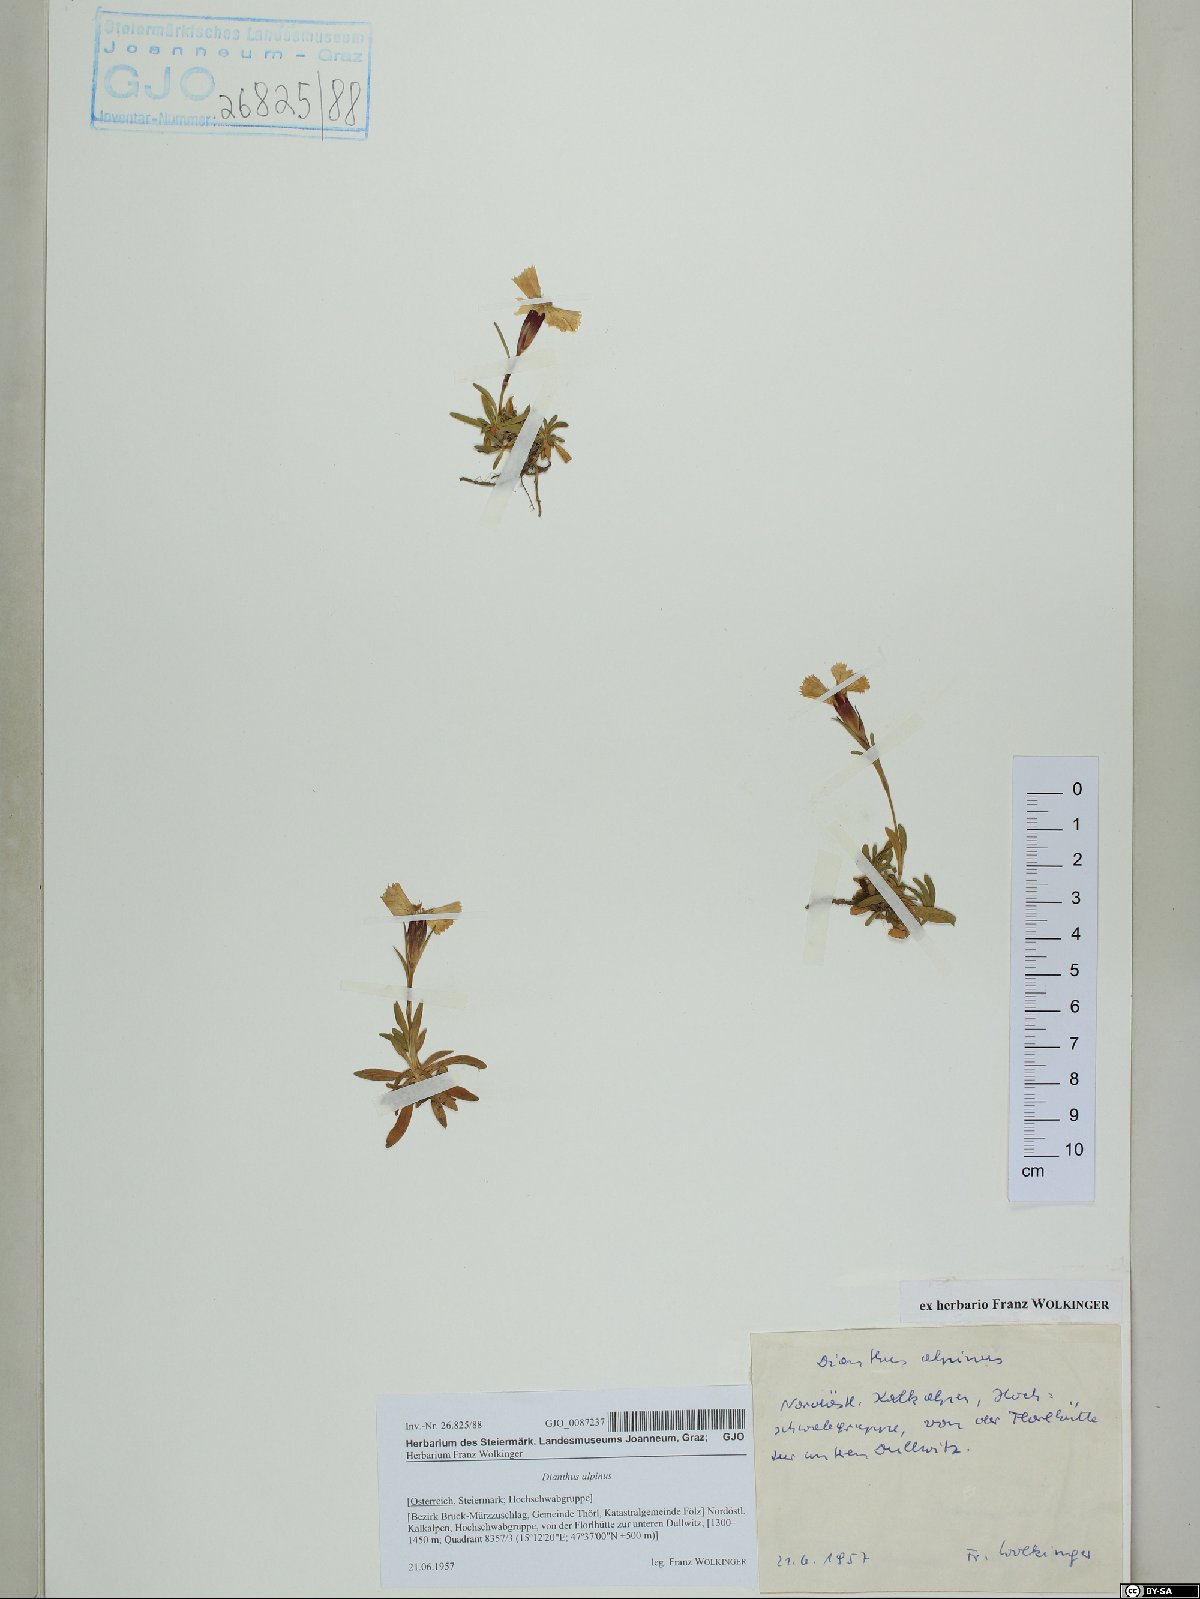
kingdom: Plantae
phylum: Tracheophyta
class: Magnoliopsida
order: Caryophyllales
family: Caryophyllaceae
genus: Dianthus
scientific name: Dianthus alpinus
